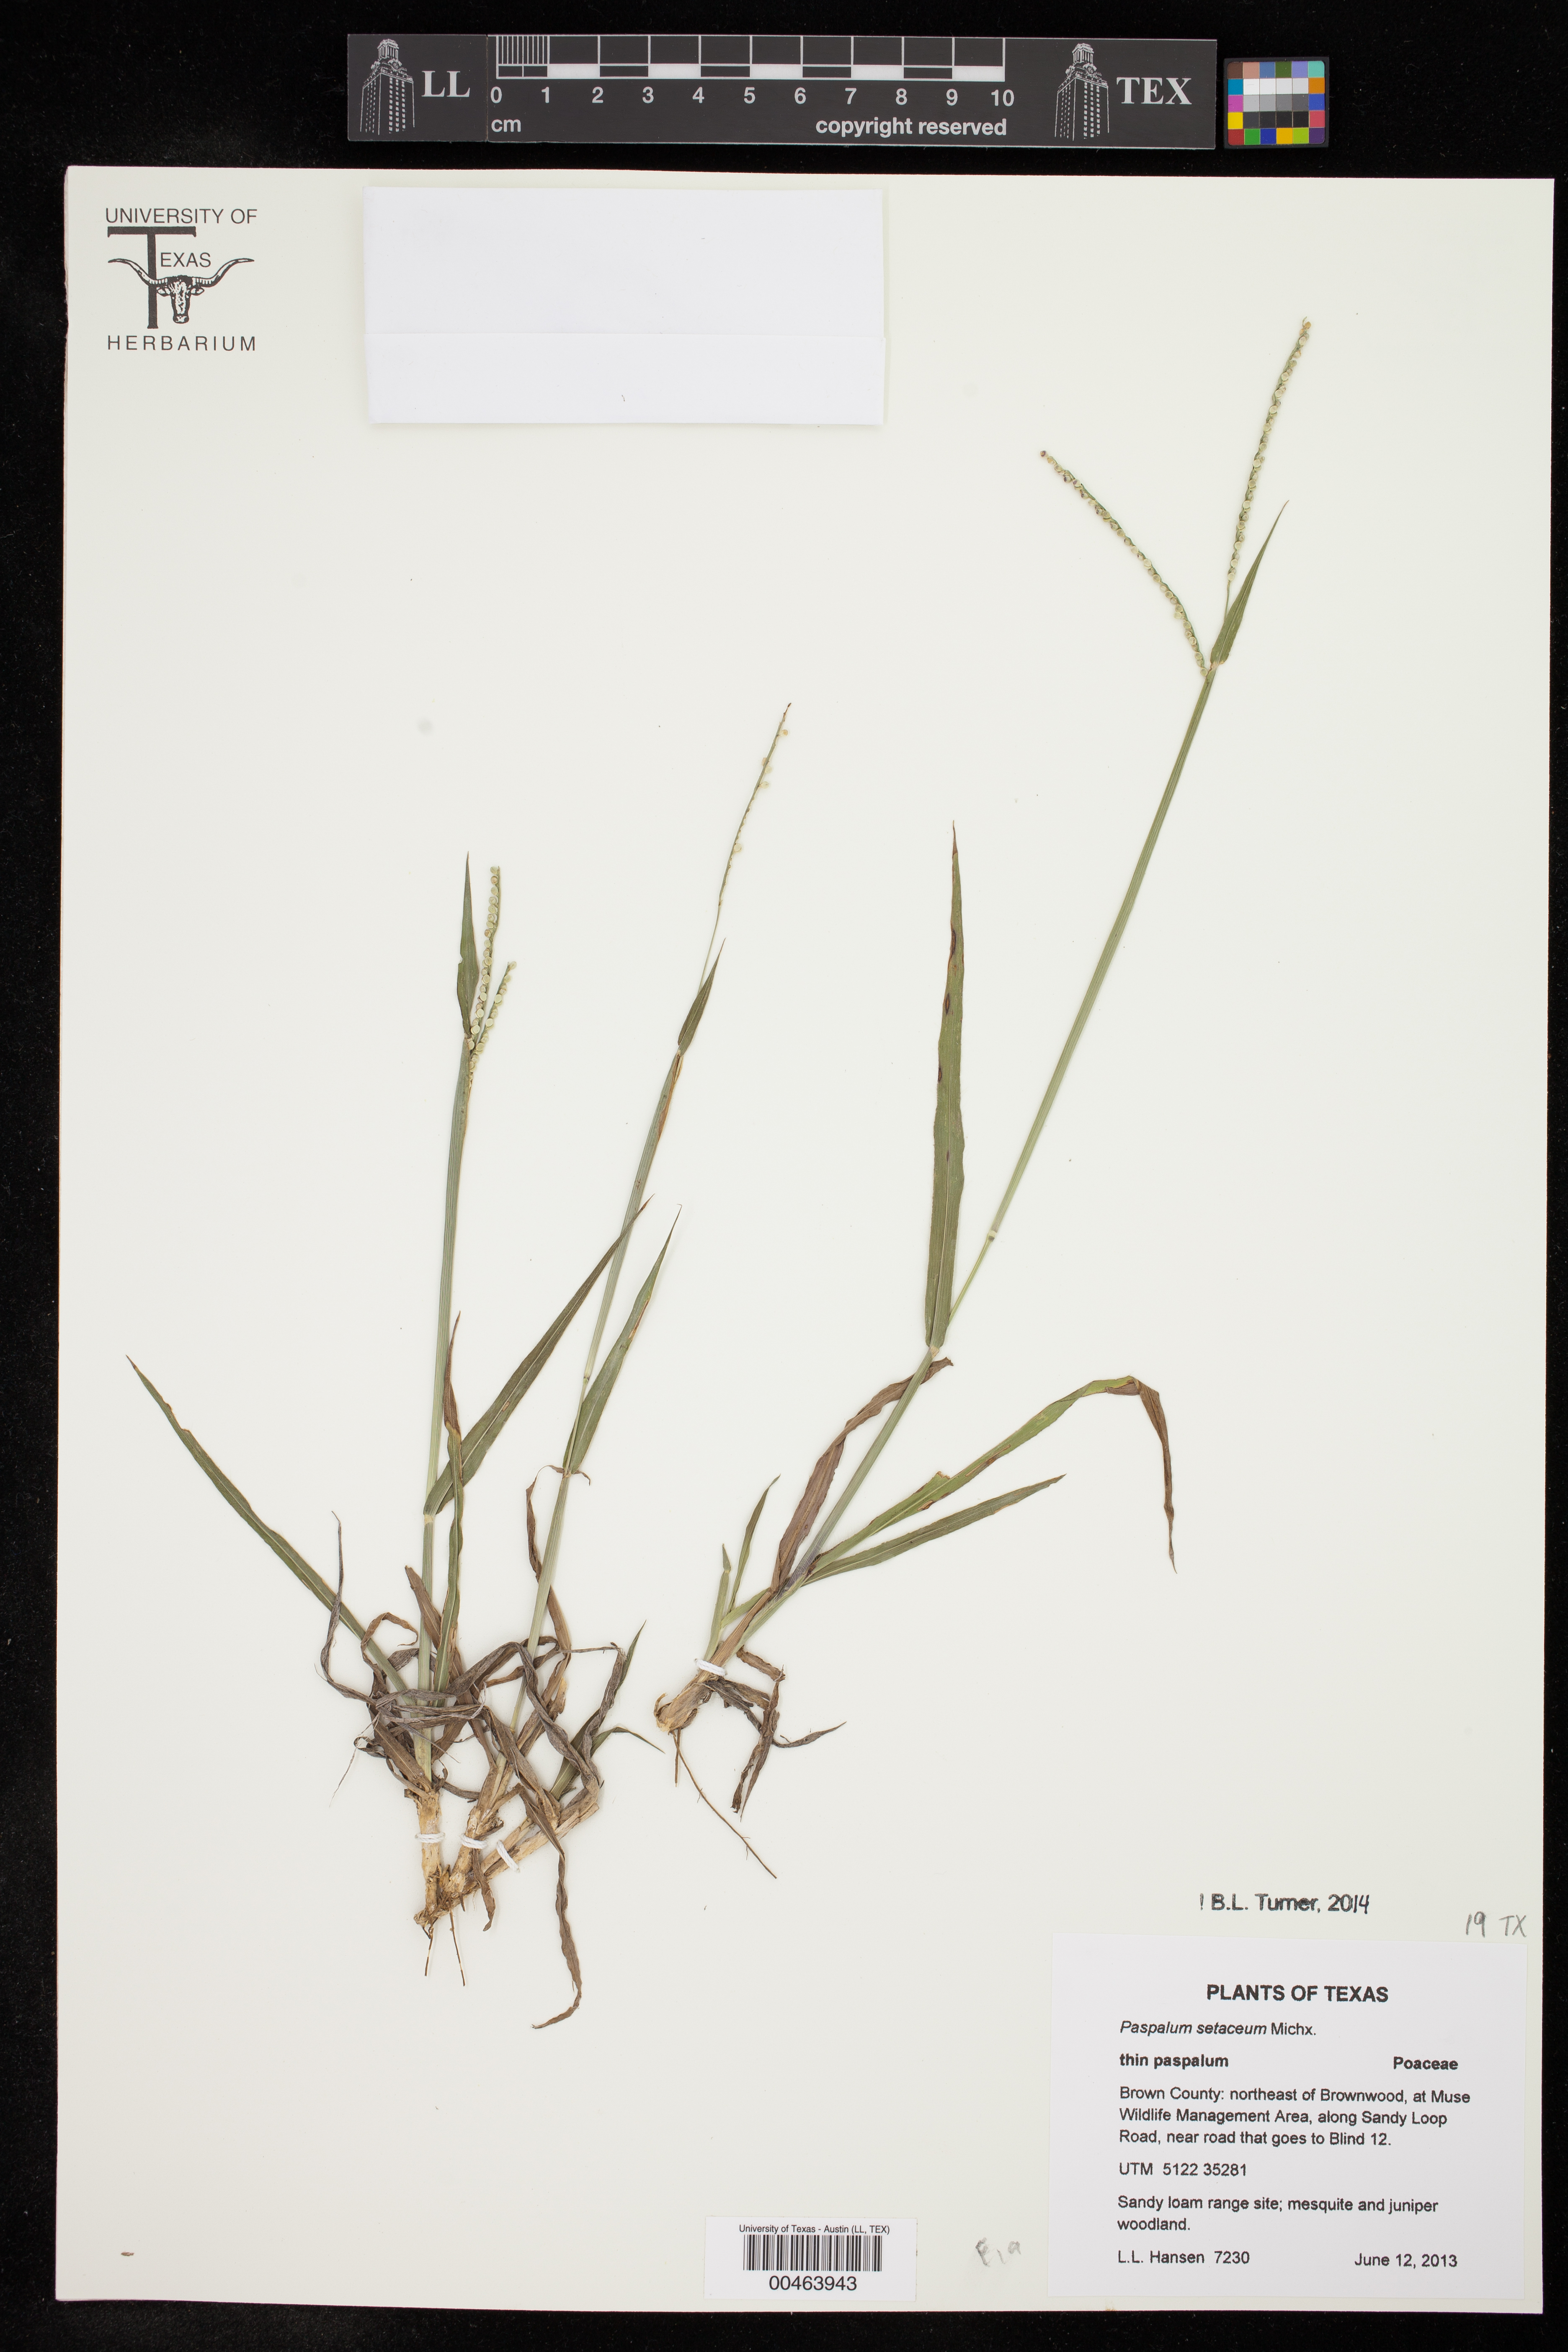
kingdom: Plantae
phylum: Tracheophyta
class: Liliopsida
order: Poales
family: Poaceae
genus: Paspalum
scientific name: Paspalum setaceum
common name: Slender paspalum
